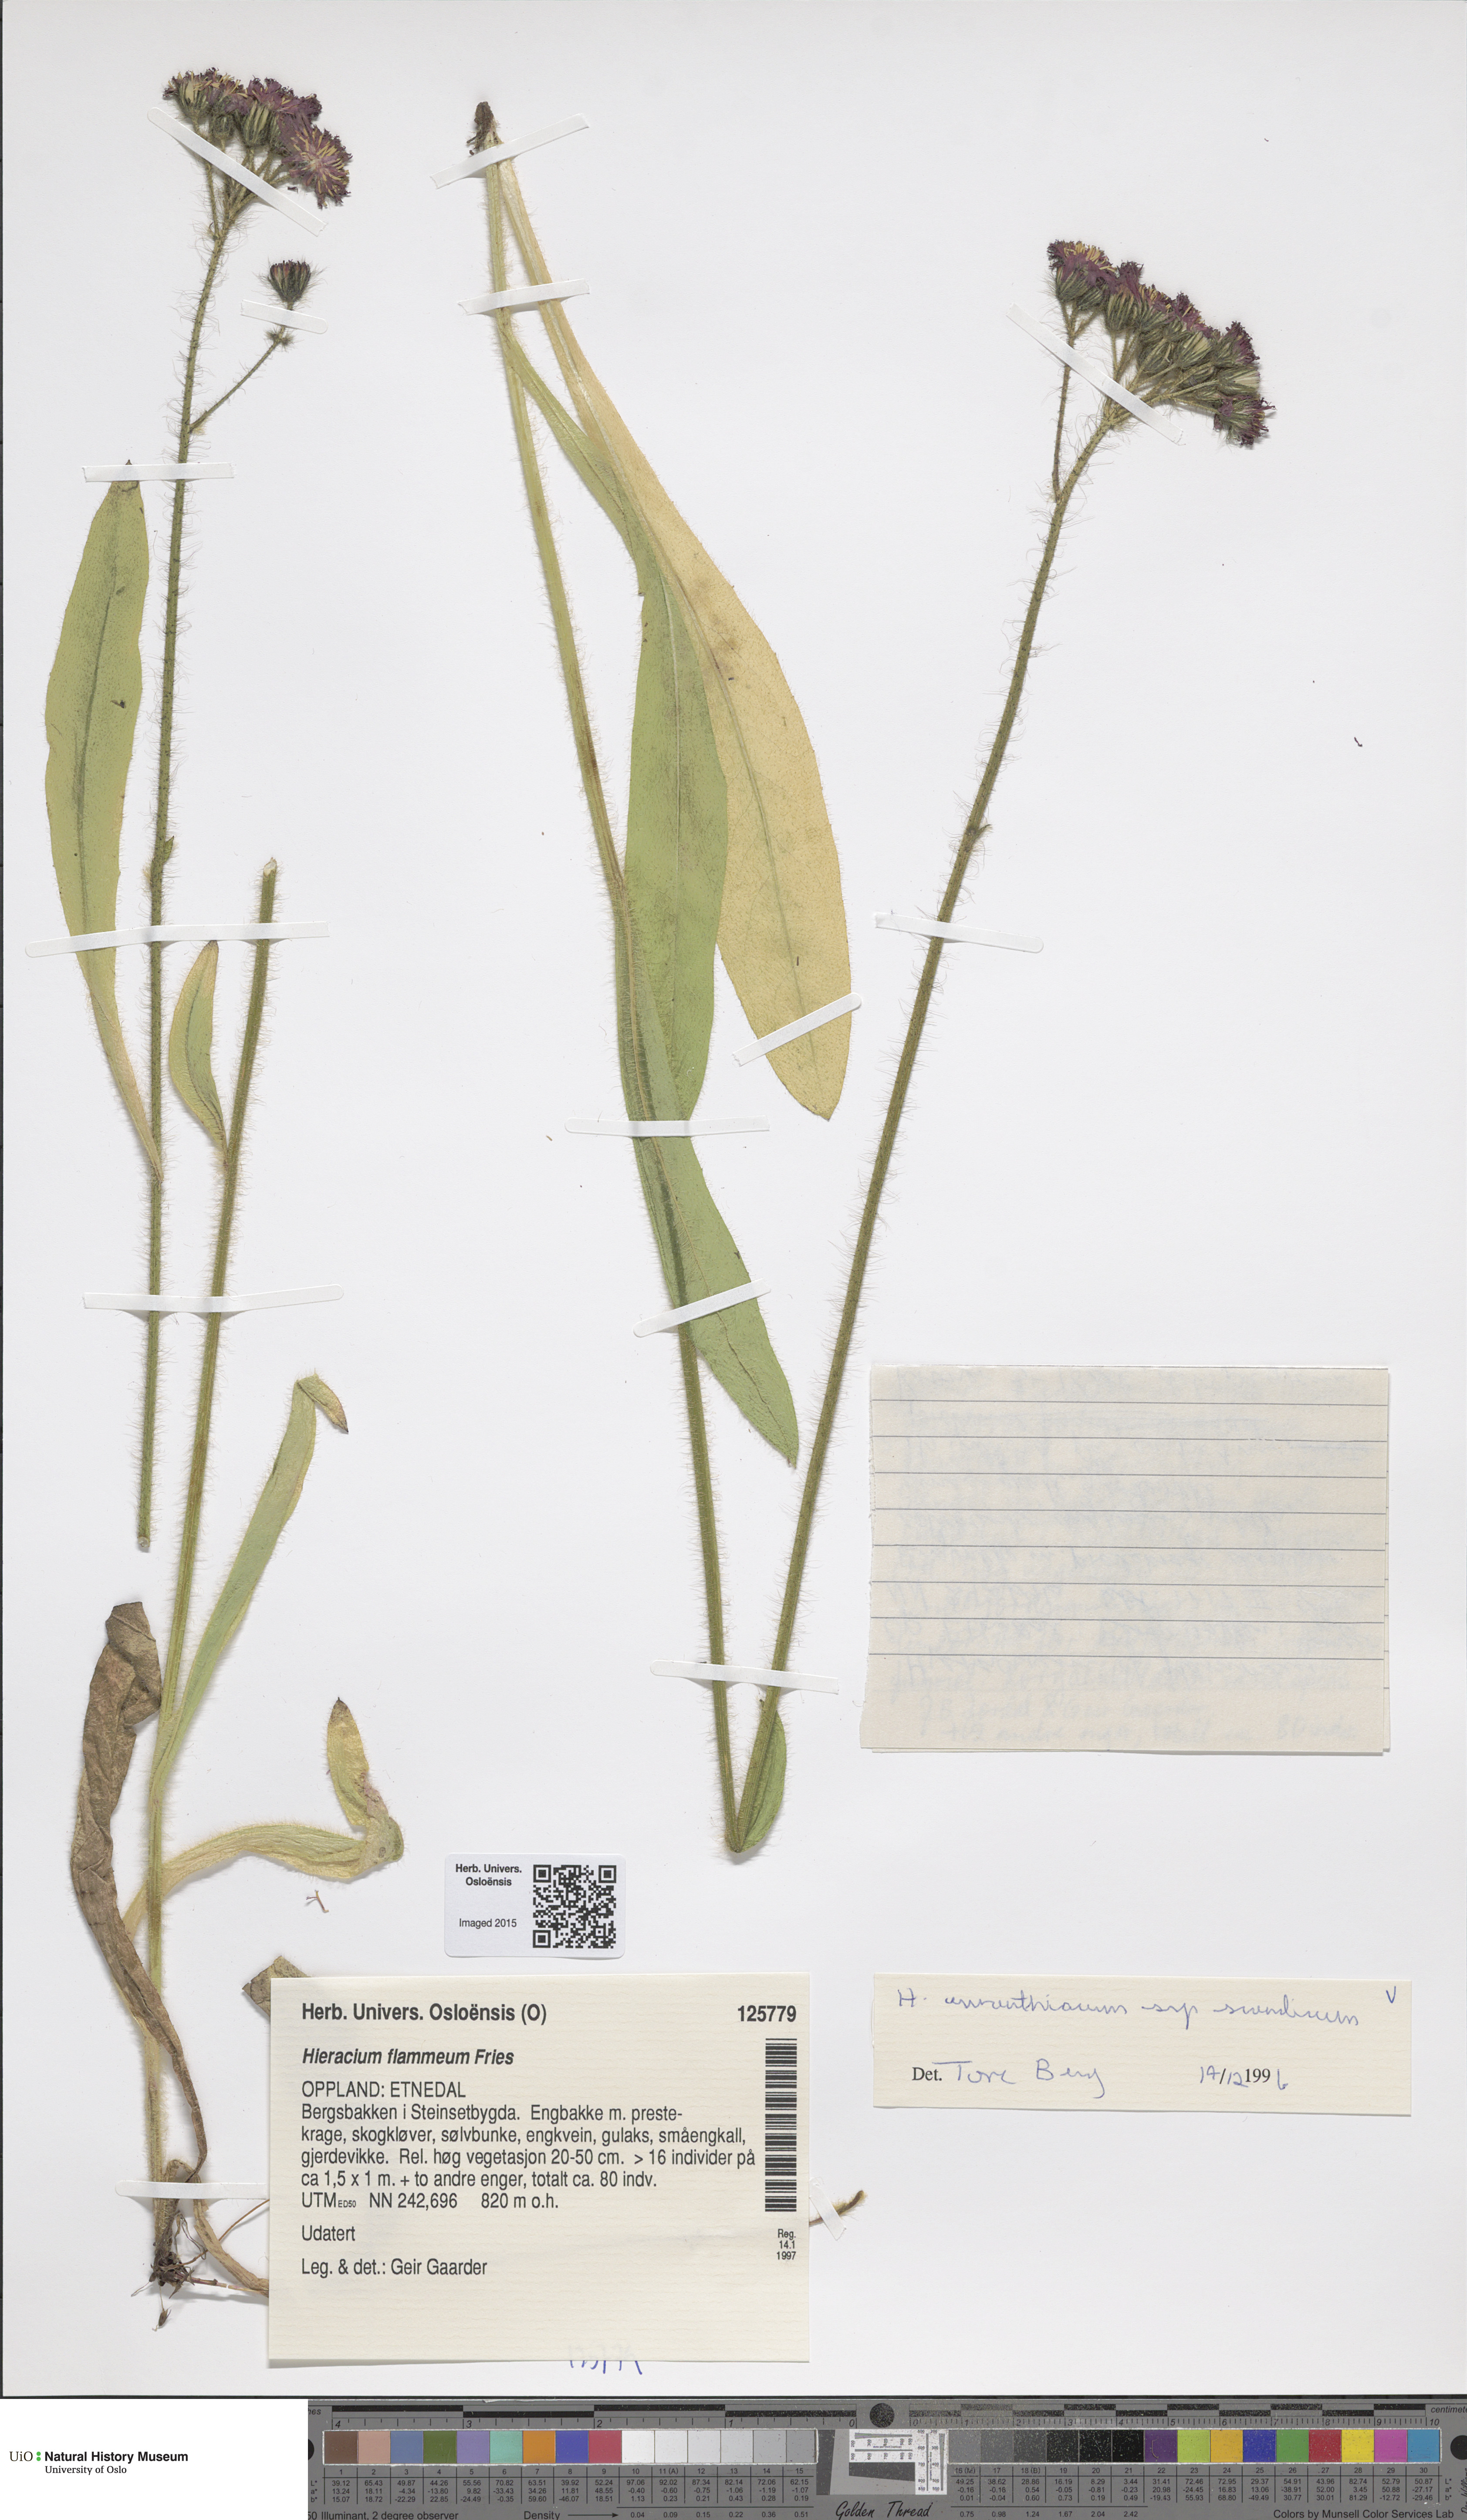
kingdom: Plantae
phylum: Tracheophyta
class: Magnoliopsida
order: Asterales
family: Asteraceae
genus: Pilosella
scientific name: Pilosella aurantiaca
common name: Fox-and-cubs
